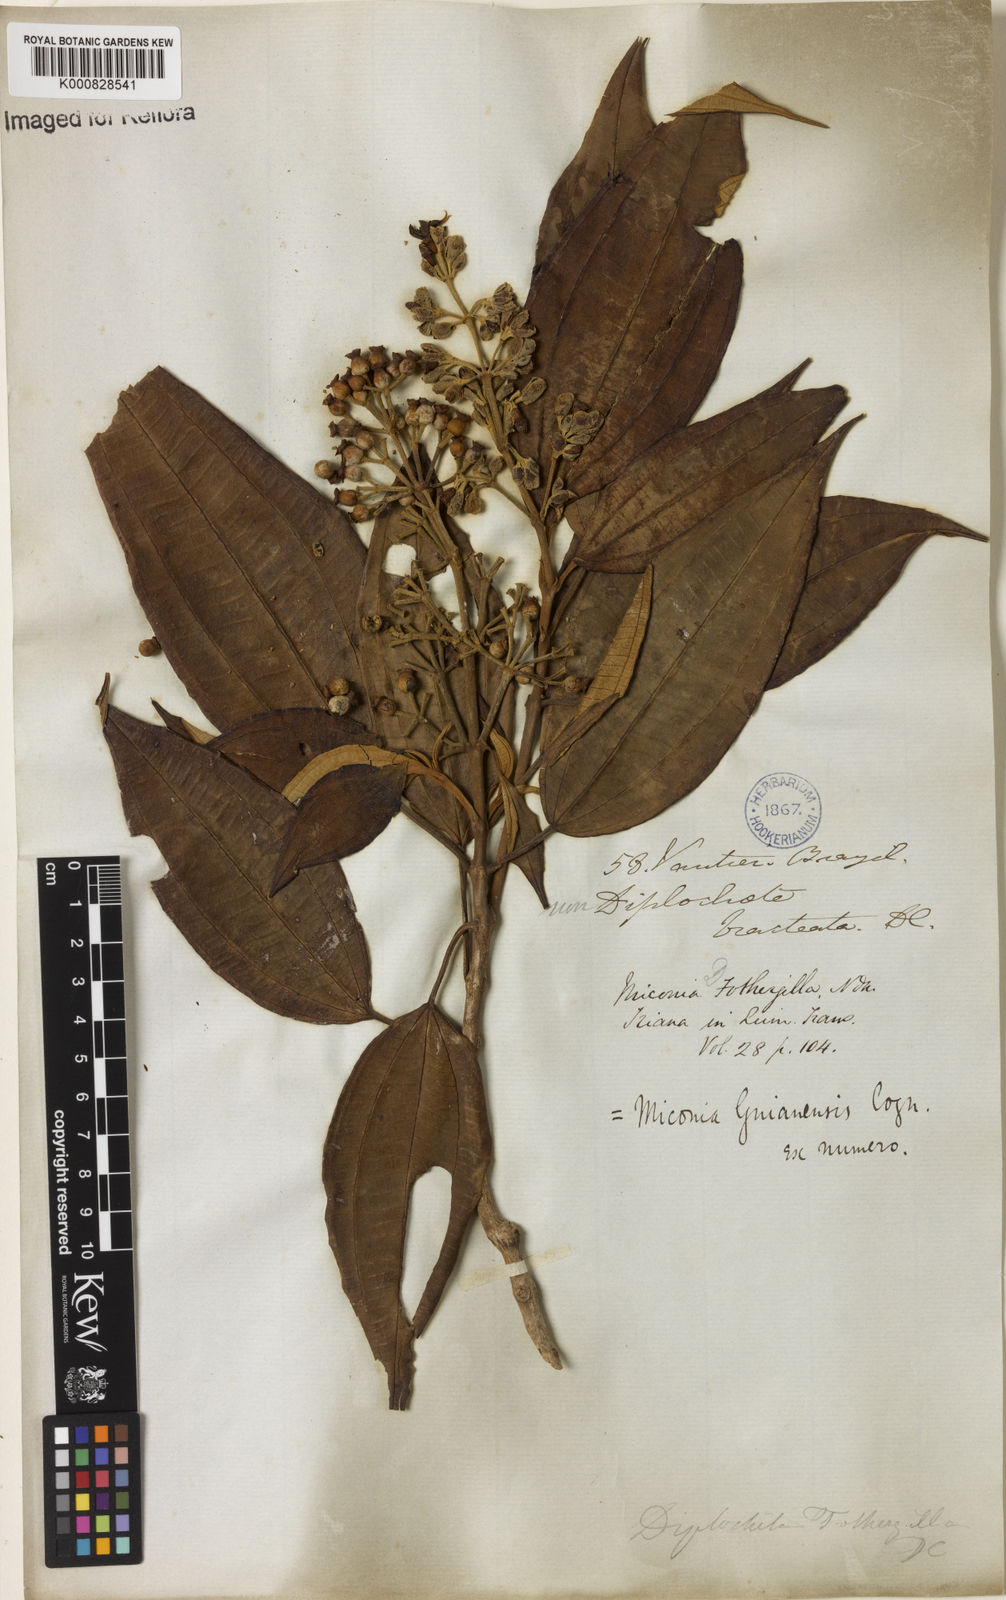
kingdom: Plantae
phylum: Tracheophyta
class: Magnoliopsida
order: Myrtales
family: Melastomataceae
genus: Miconia
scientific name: Miconia mirabilis
